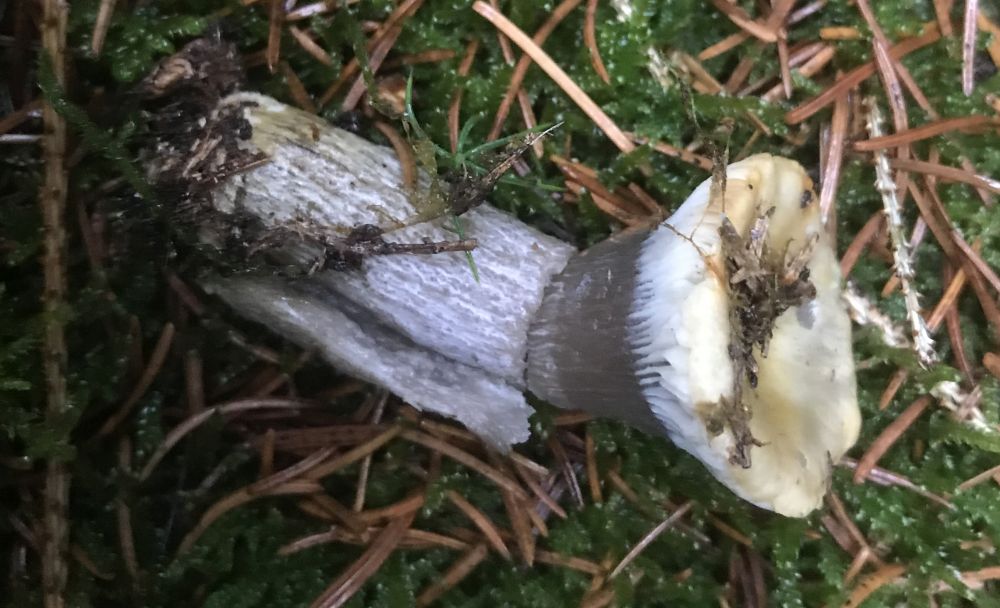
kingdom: Fungi
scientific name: Fungi
